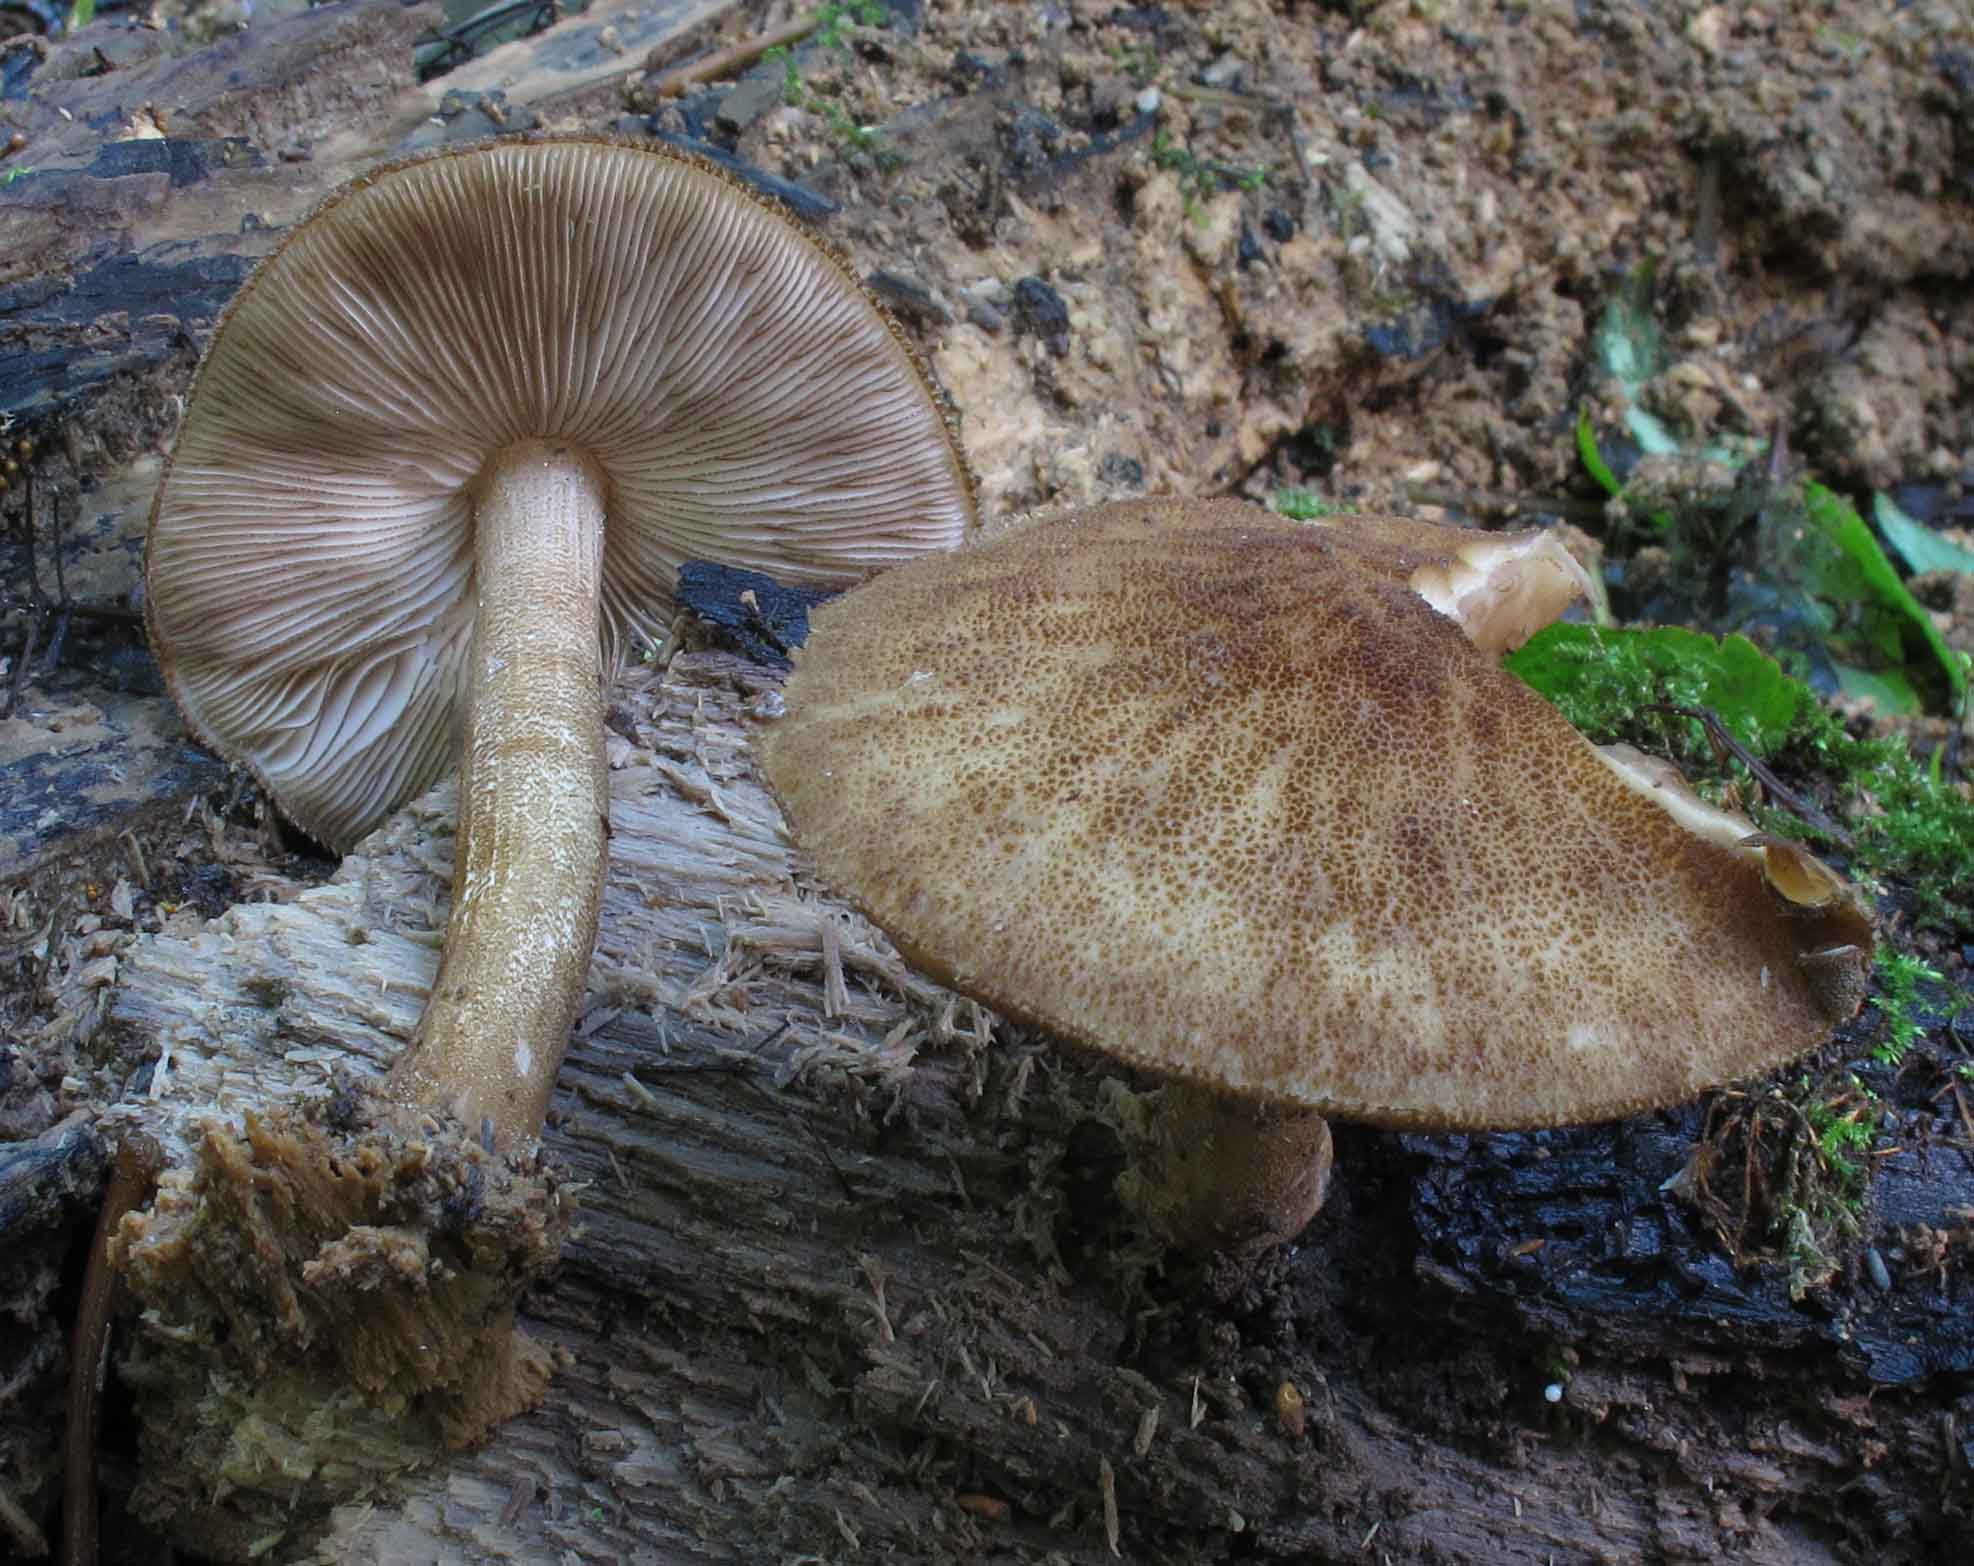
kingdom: Fungi
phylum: Basidiomycota
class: Agaricomycetes
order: Agaricales
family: Pluteaceae
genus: Pluteus
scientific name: Pluteus umbrosus
